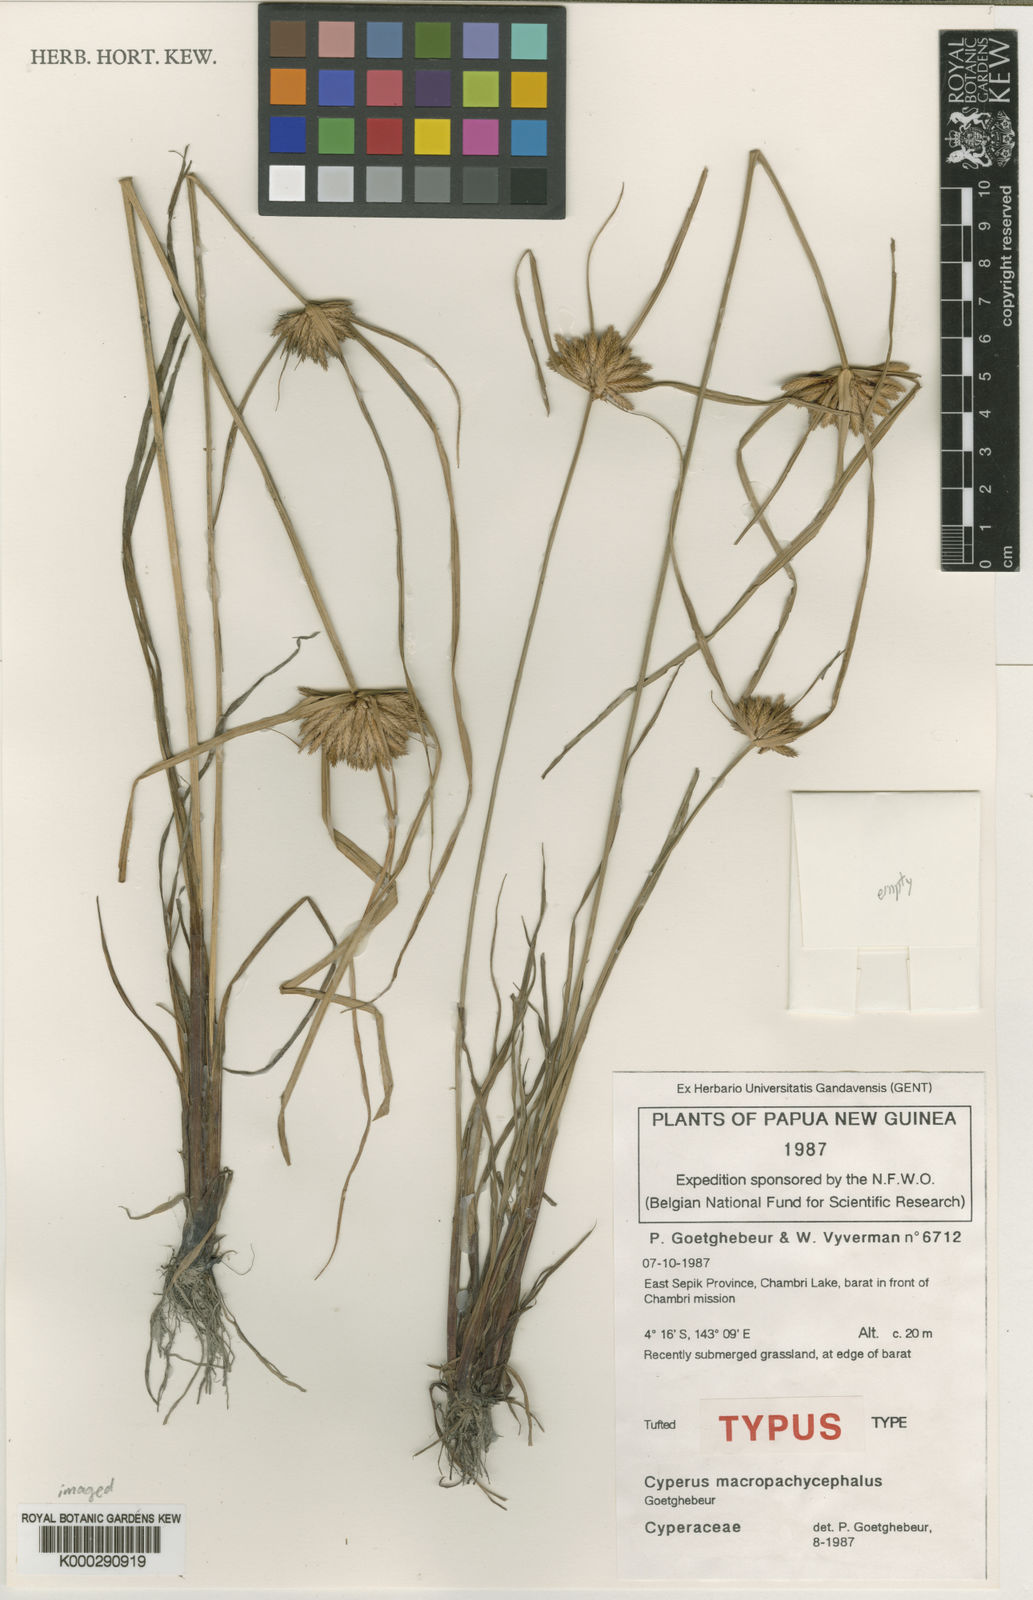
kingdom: Plantae
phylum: Tracheophyta
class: Liliopsida
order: Poales
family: Cyperaceae
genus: Cyperus
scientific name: Cyperus macropachycephalus
